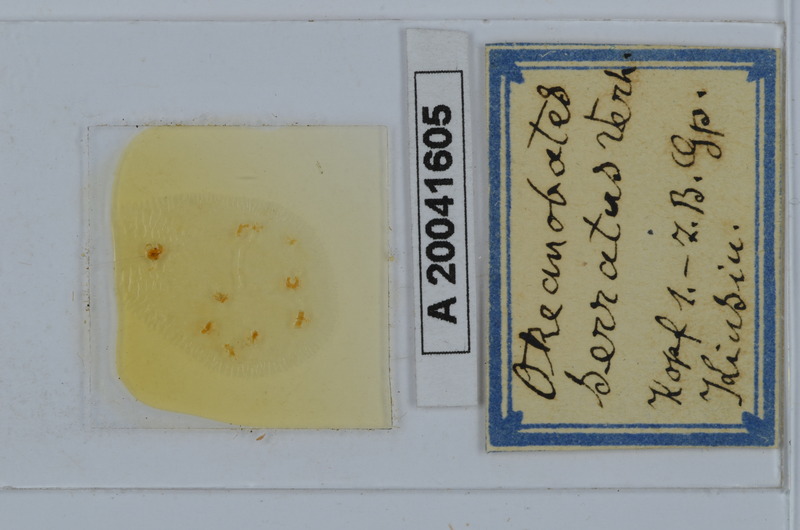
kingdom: Animalia
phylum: Arthropoda
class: Diplopoda
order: Julida
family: Okeanobatidae
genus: Okeanobates
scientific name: Okeanobates serratus
